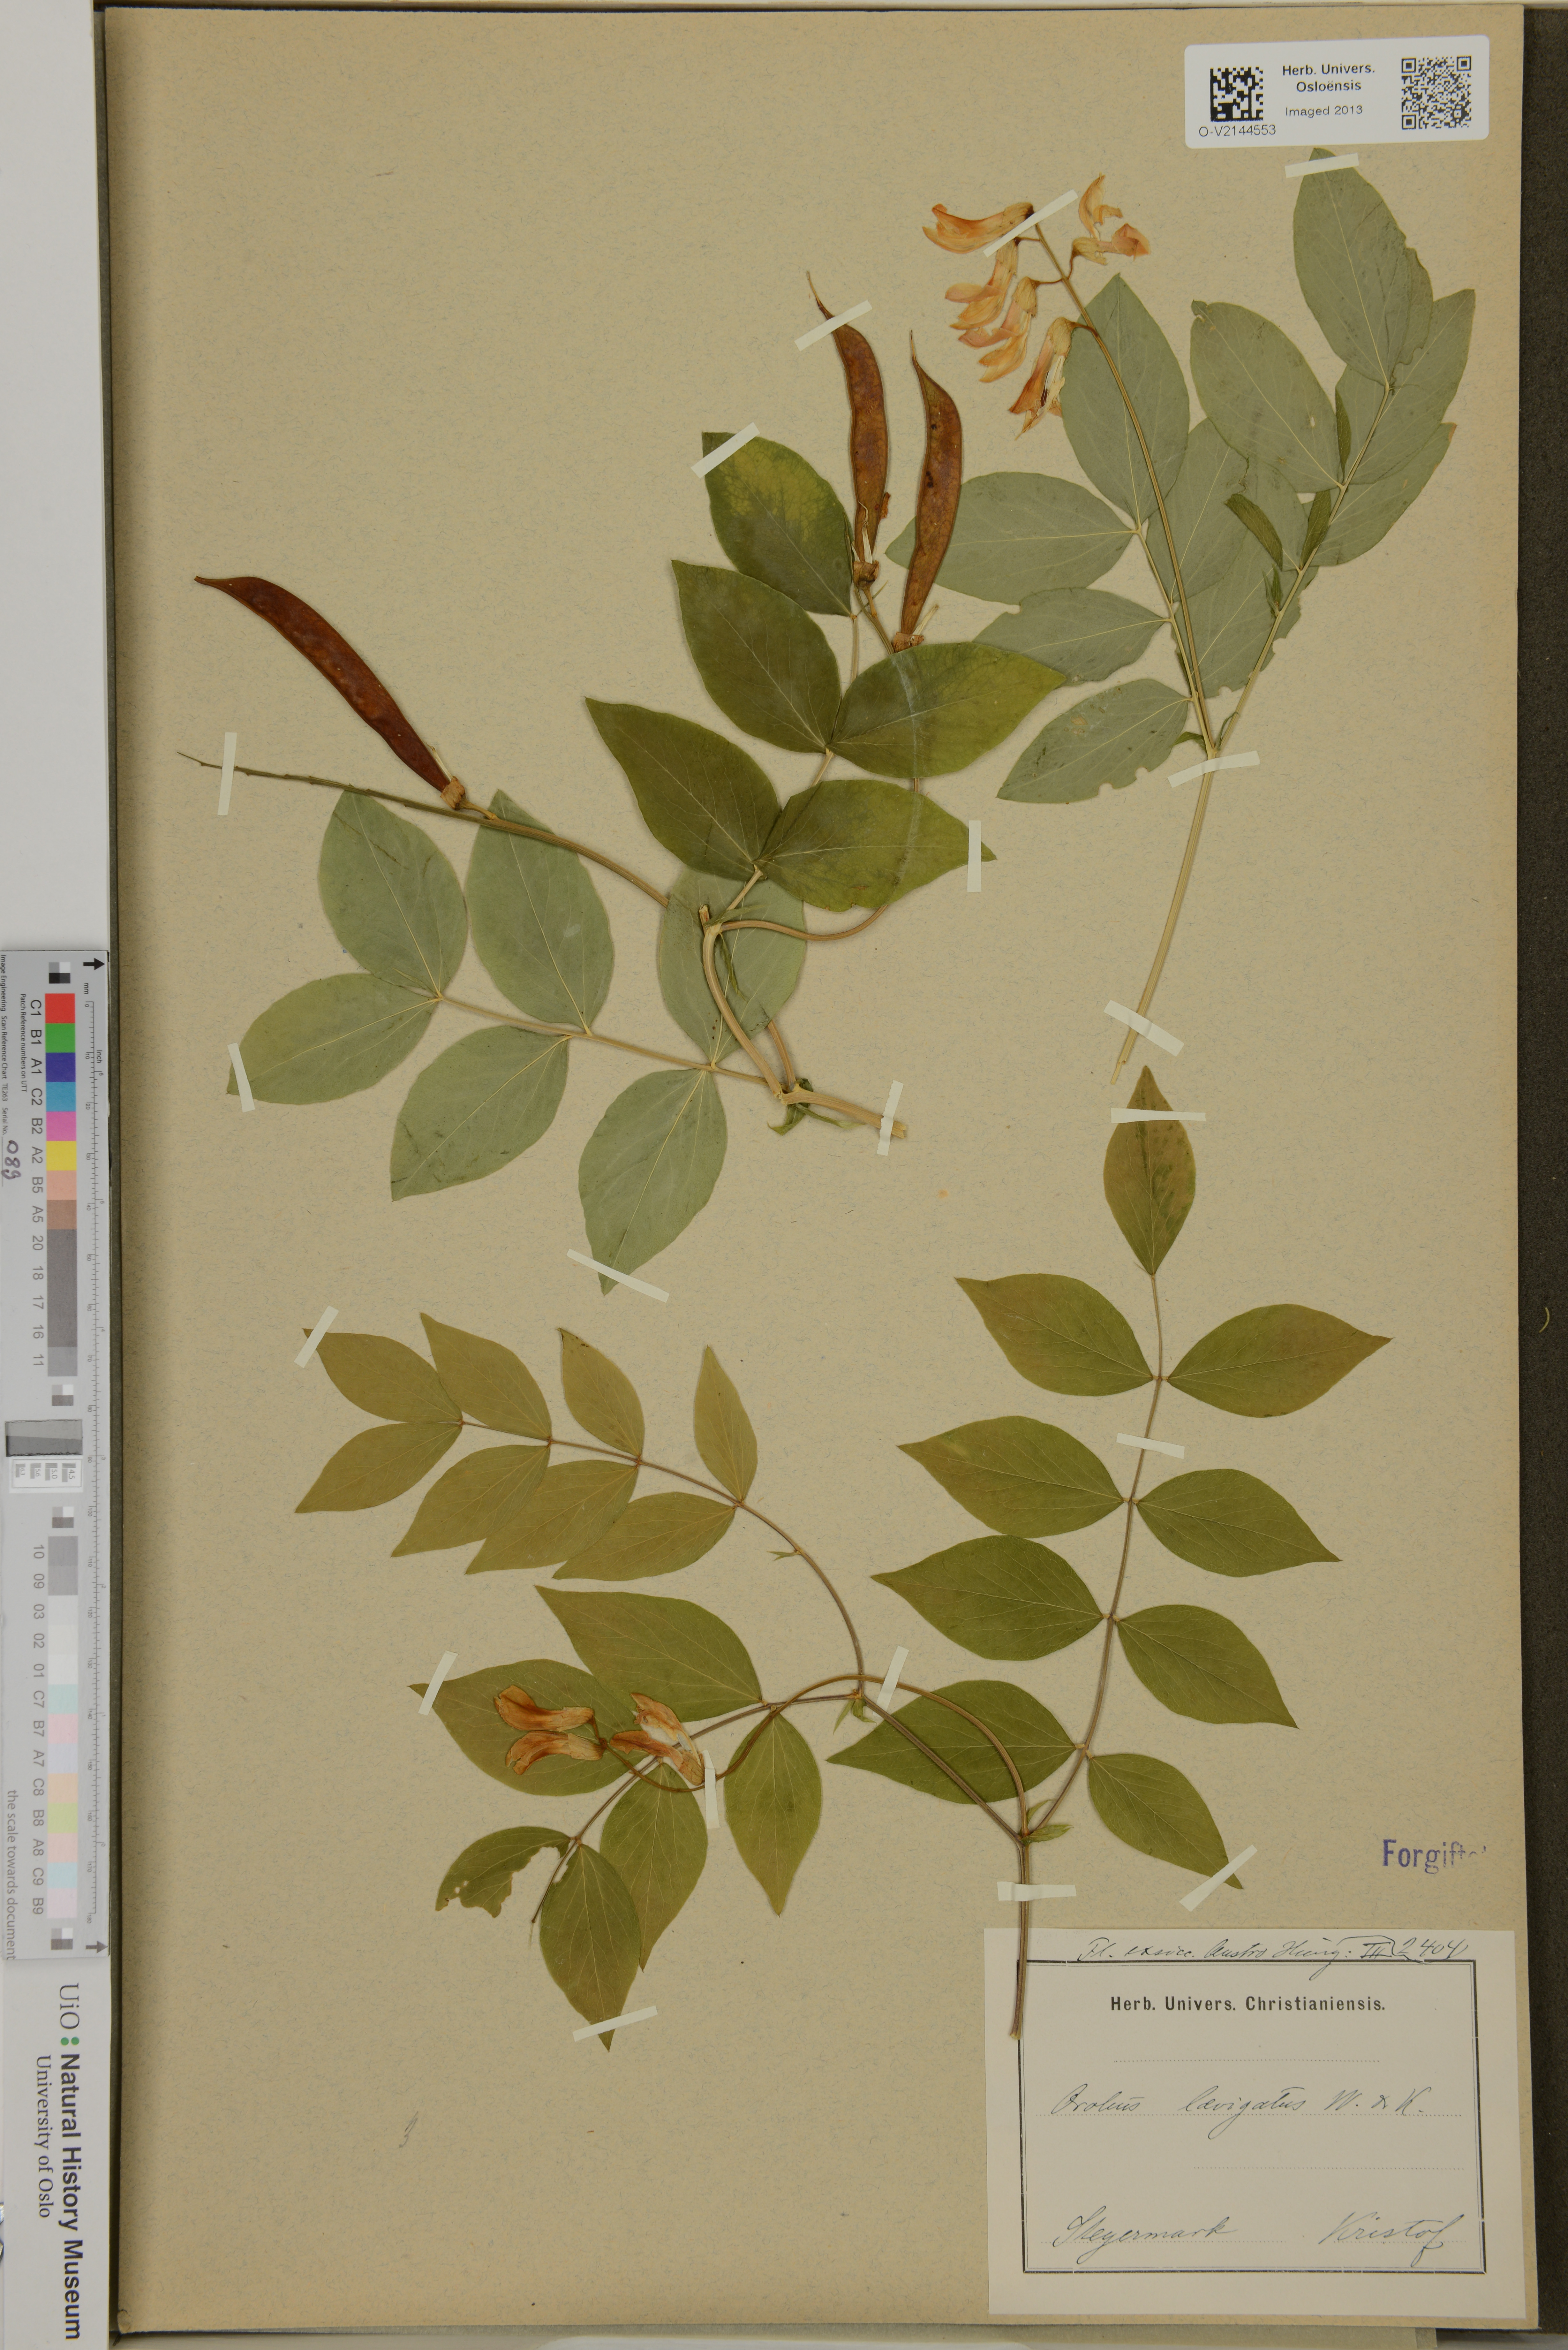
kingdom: Plantae
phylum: Tracheophyta
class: Magnoliopsida
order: Fabales
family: Fabaceae
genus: Lathyrus
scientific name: Lathyrus laevigatus
